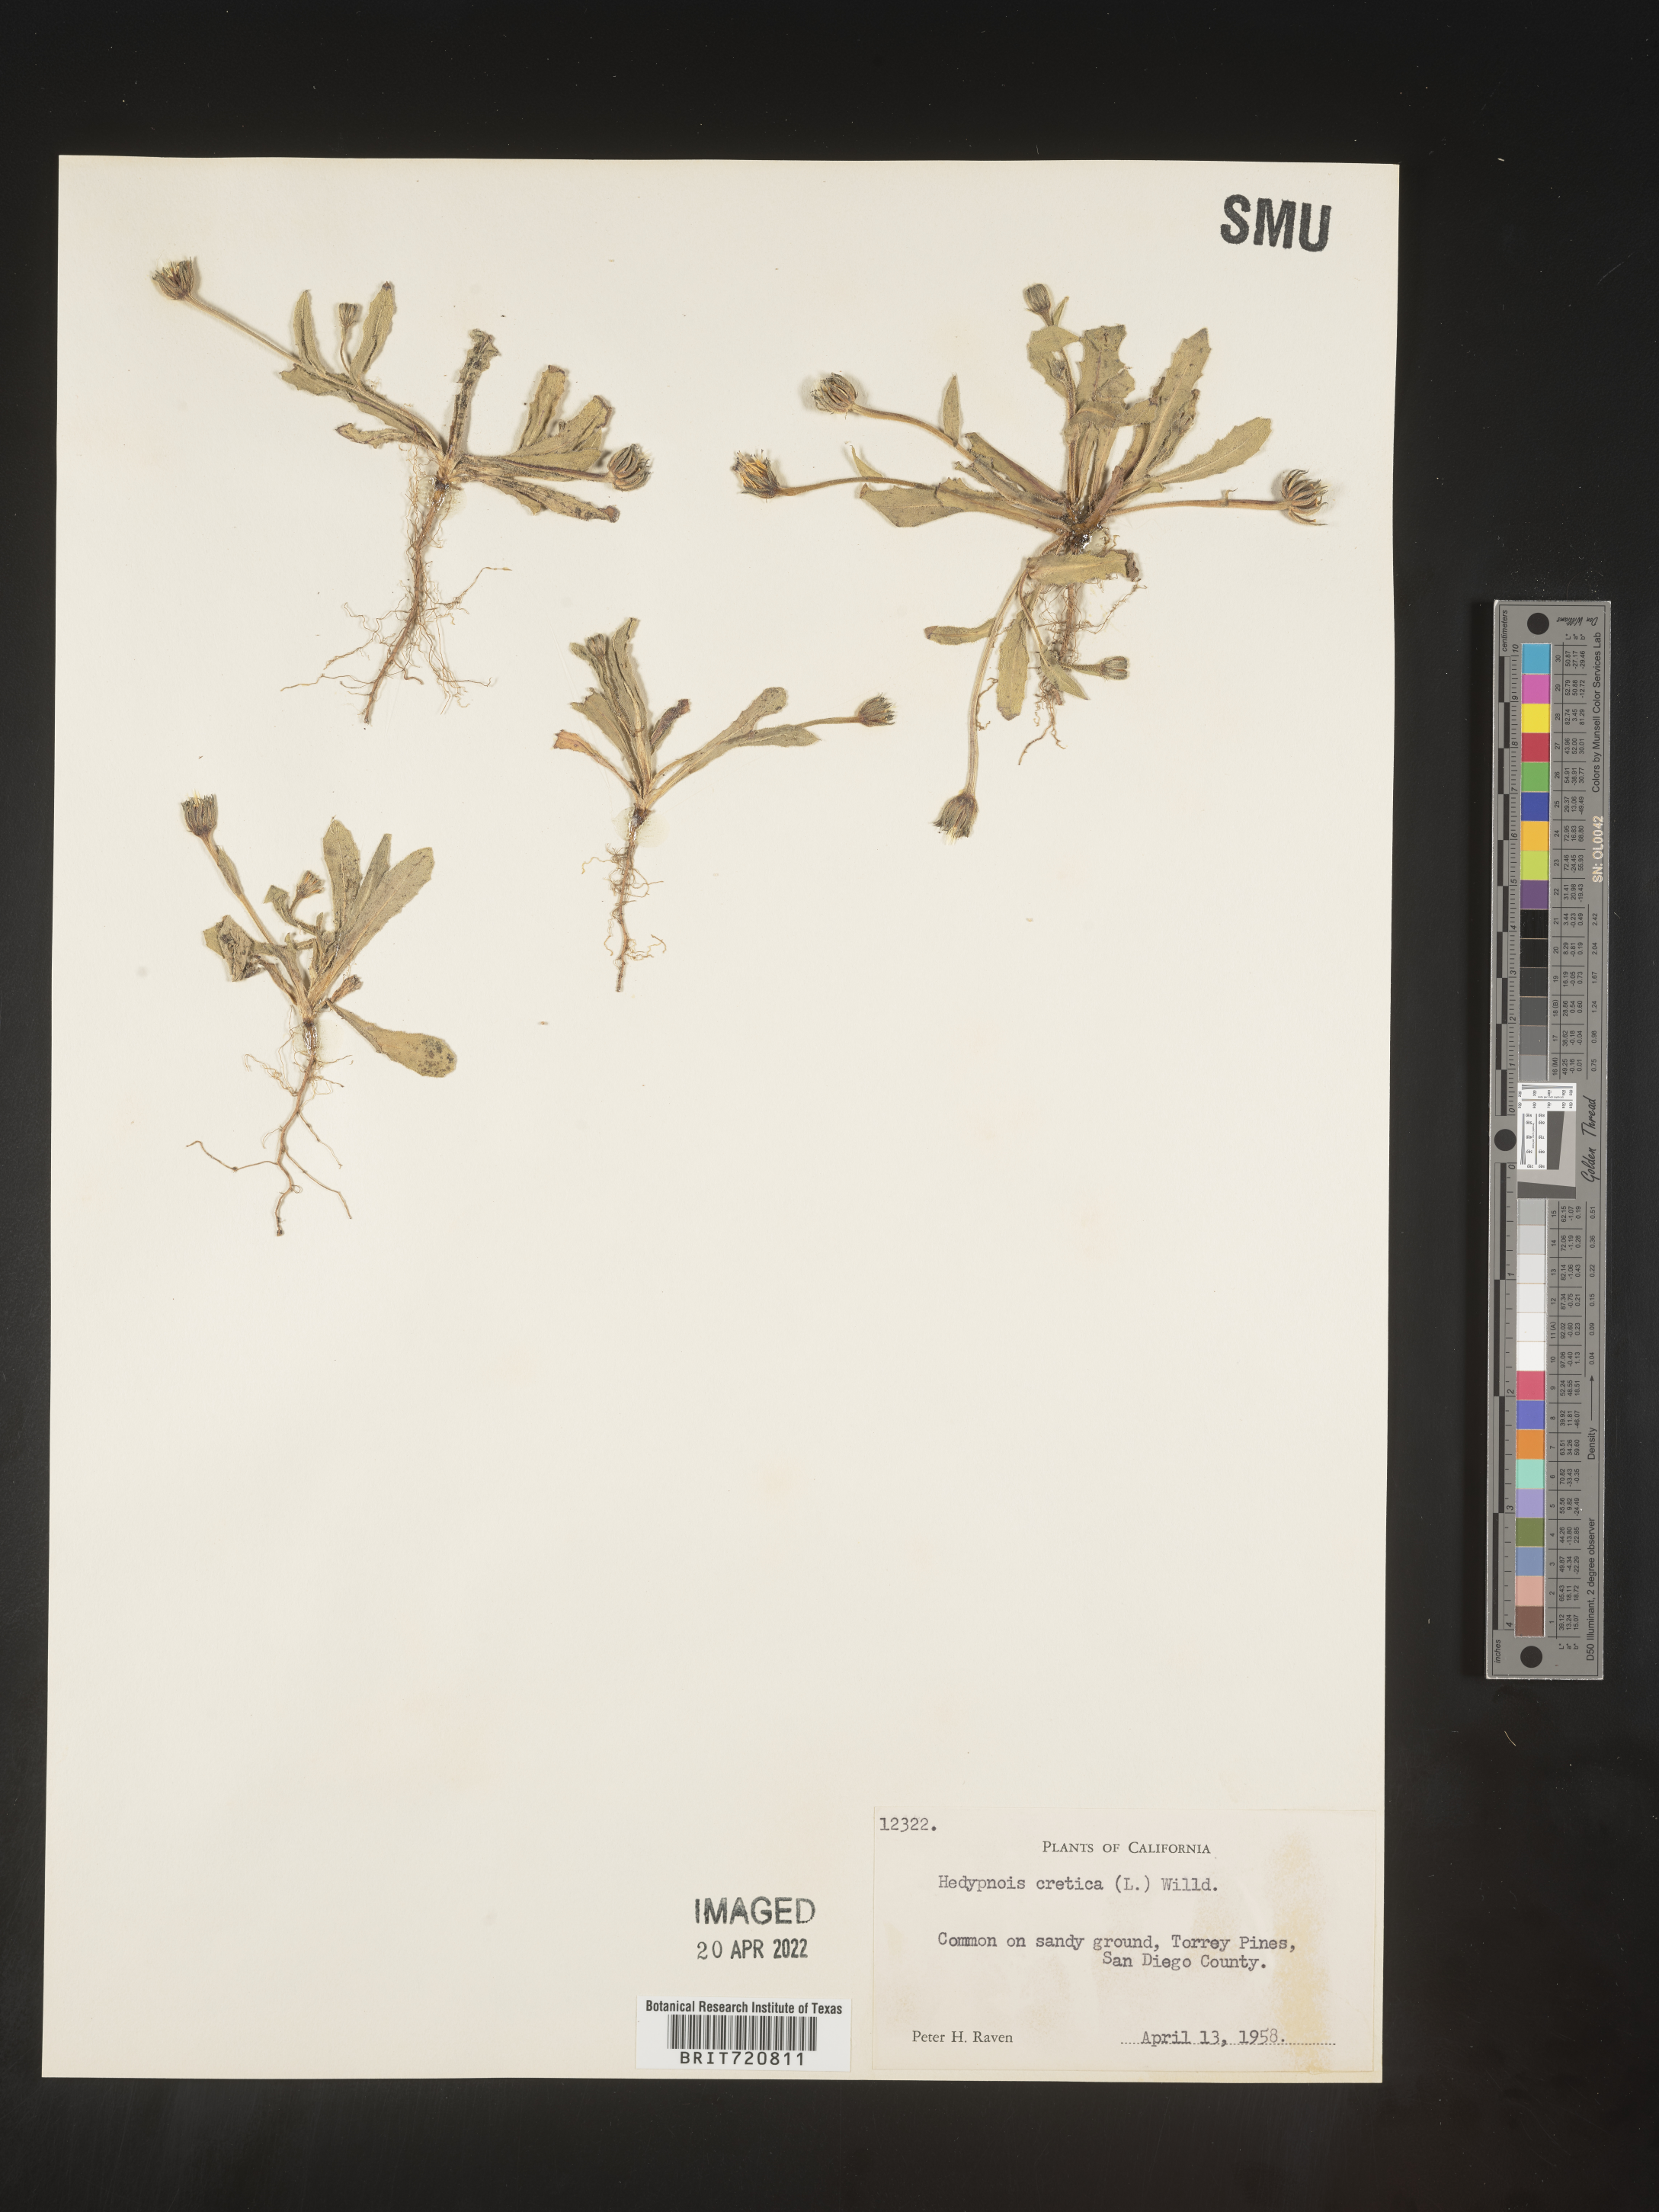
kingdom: Plantae
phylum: Tracheophyta
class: Magnoliopsida
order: Asterales
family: Asteraceae
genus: Hedypnois
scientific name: Hedypnois
